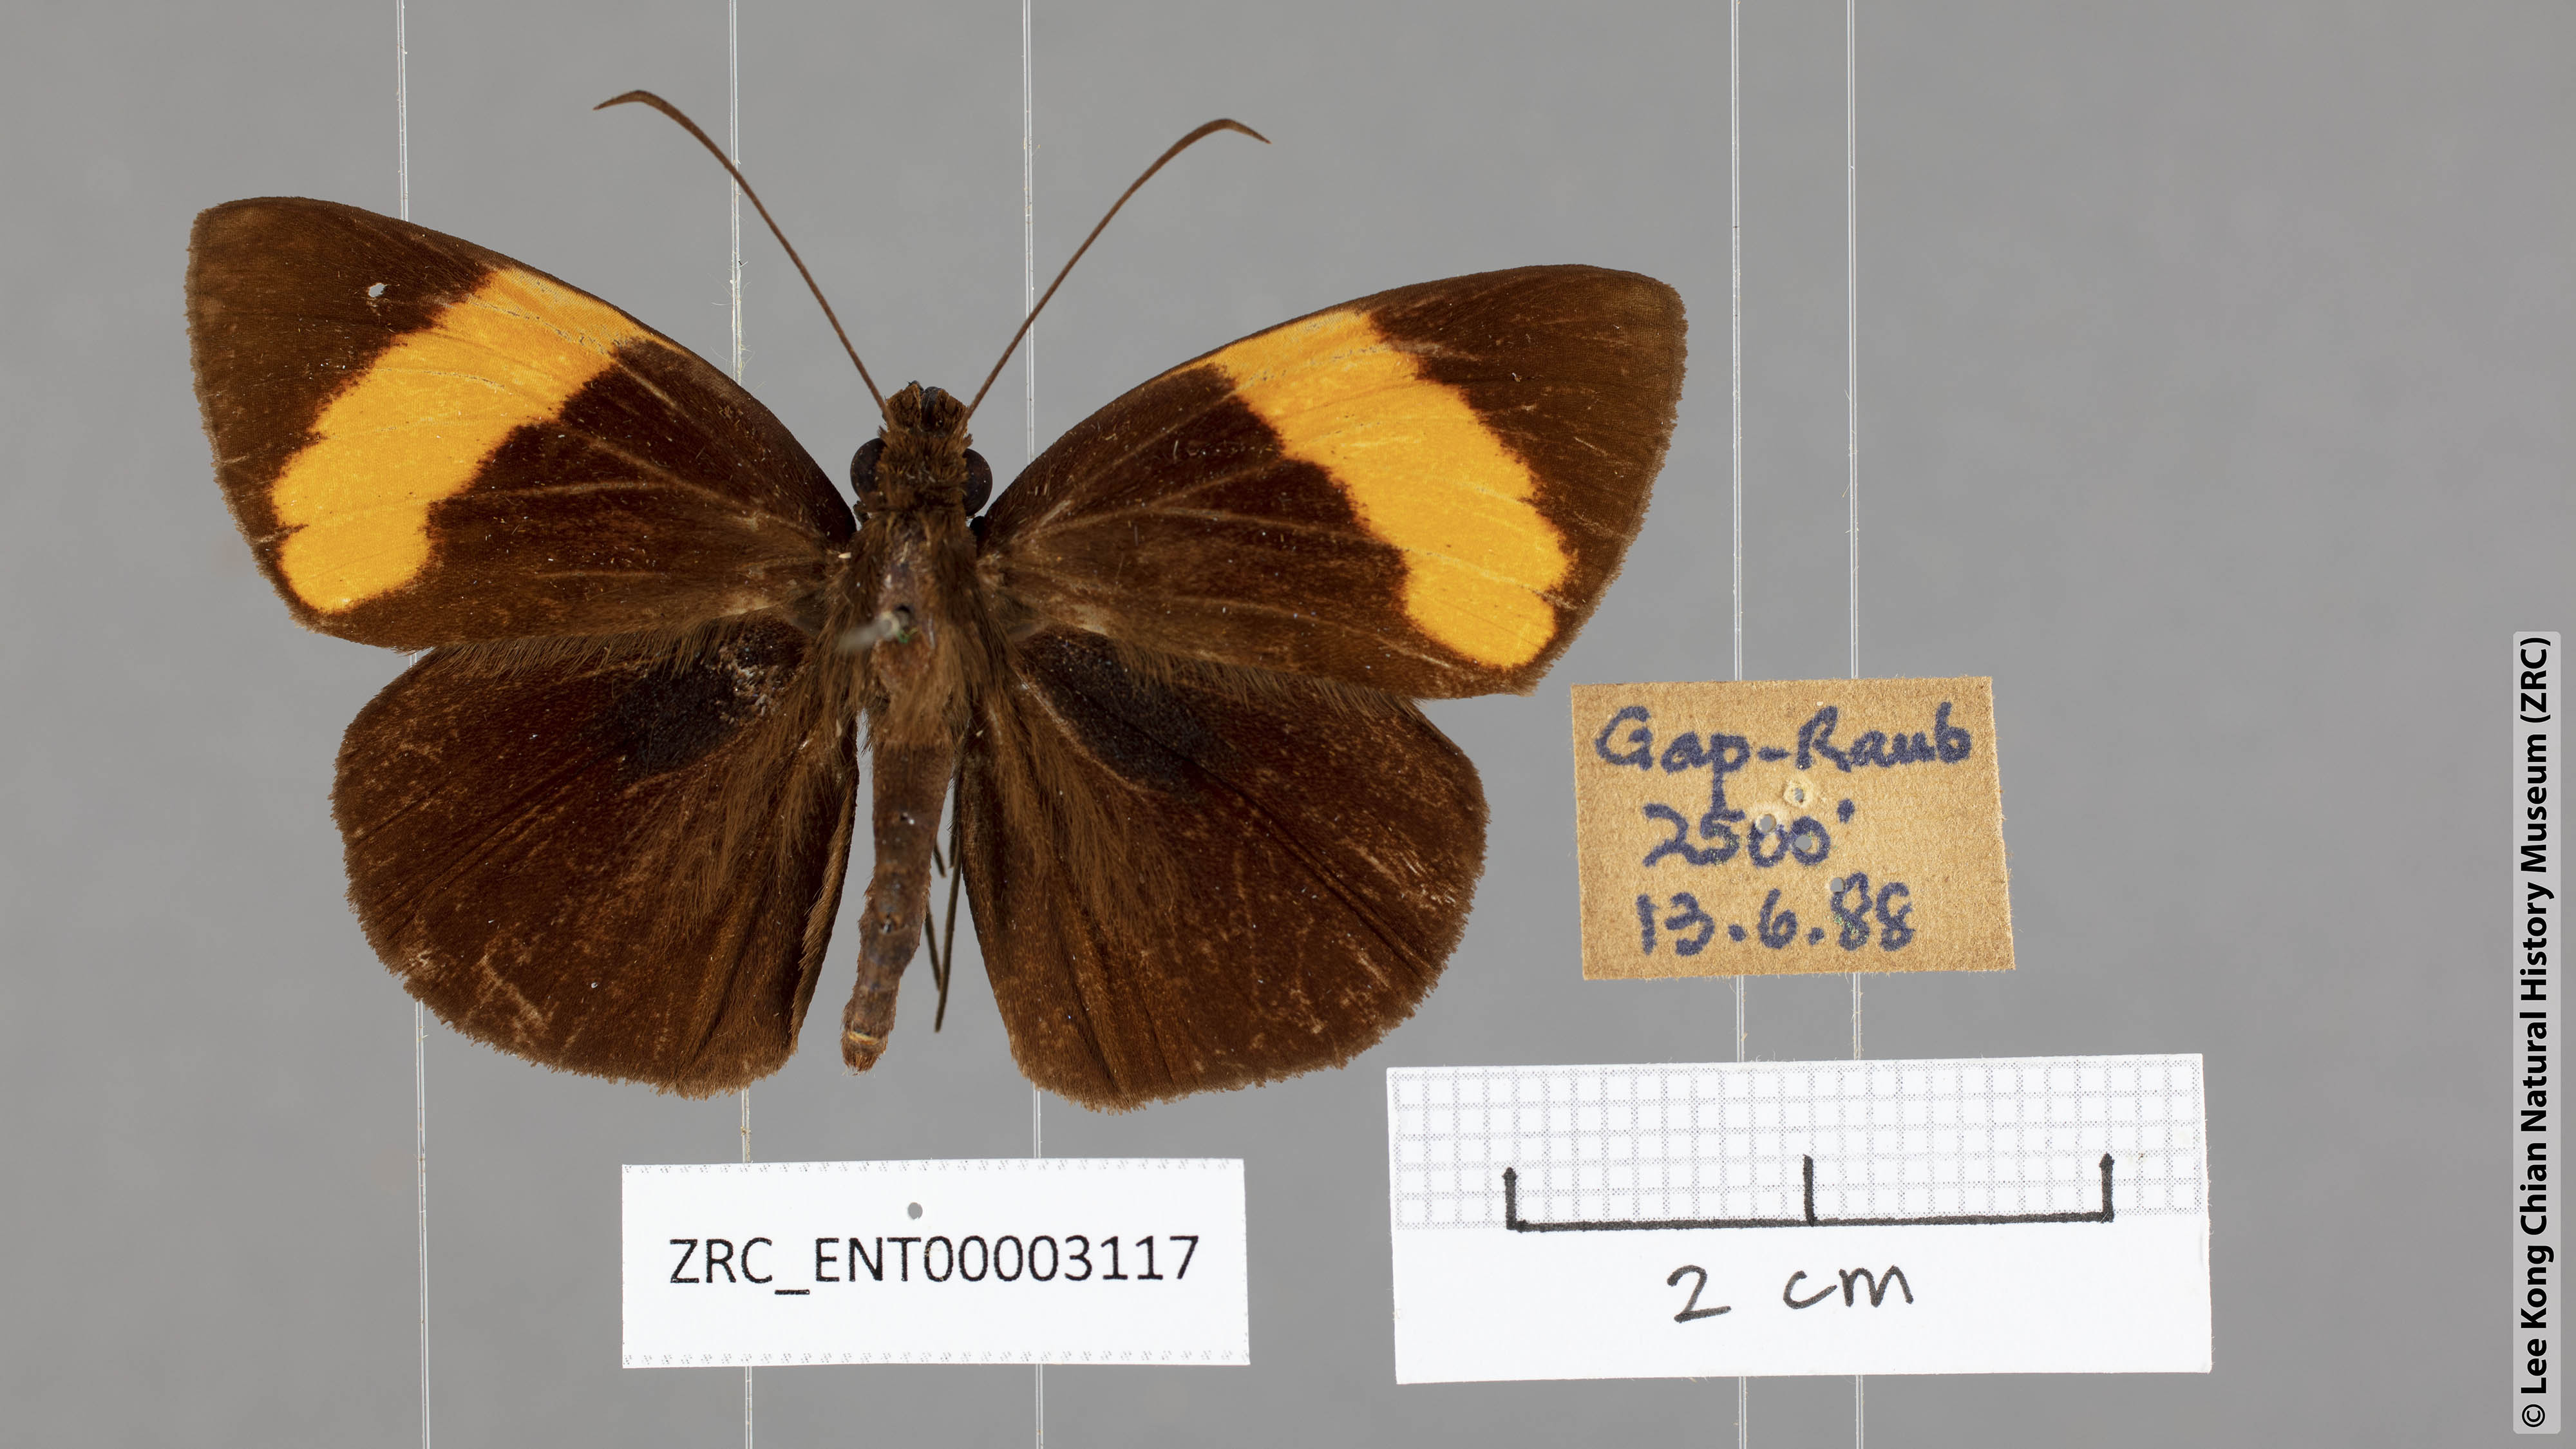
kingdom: Animalia
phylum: Arthropoda
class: Insecta
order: Lepidoptera
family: Hesperiidae
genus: Ancistroides
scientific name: Ancistroides armatus
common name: Red demon
